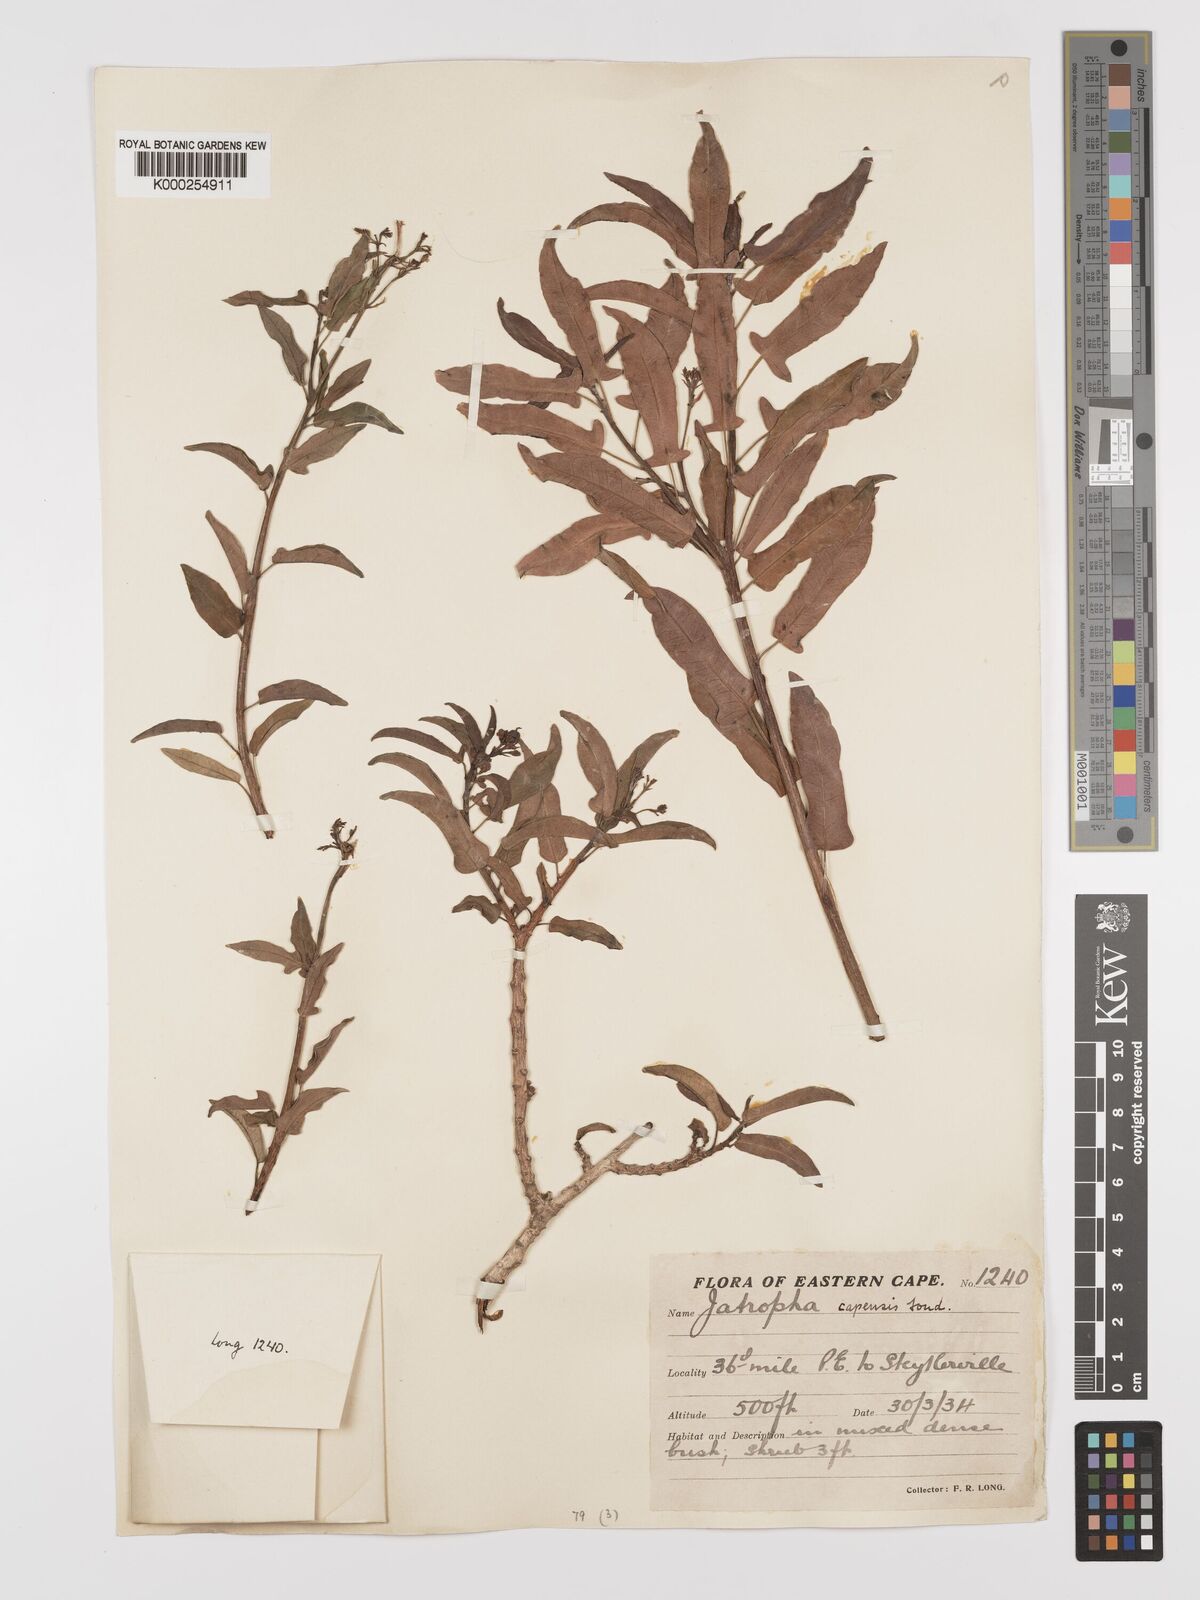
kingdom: Plantae
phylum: Tracheophyta
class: Magnoliopsida
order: Malpighiales
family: Euphorbiaceae
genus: Jatropha
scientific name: Jatropha capensis
